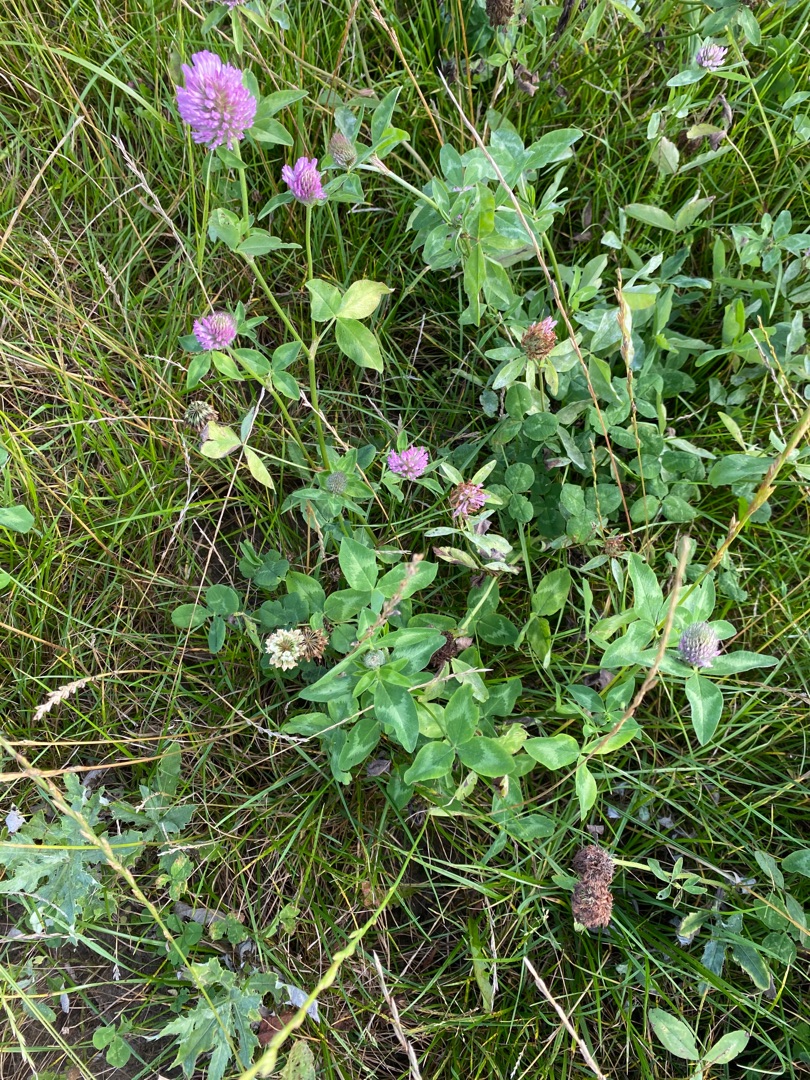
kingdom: Plantae
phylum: Tracheophyta
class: Magnoliopsida
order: Fabales
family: Fabaceae
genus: Trifolium
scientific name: Trifolium pratense
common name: Rød-kløver
